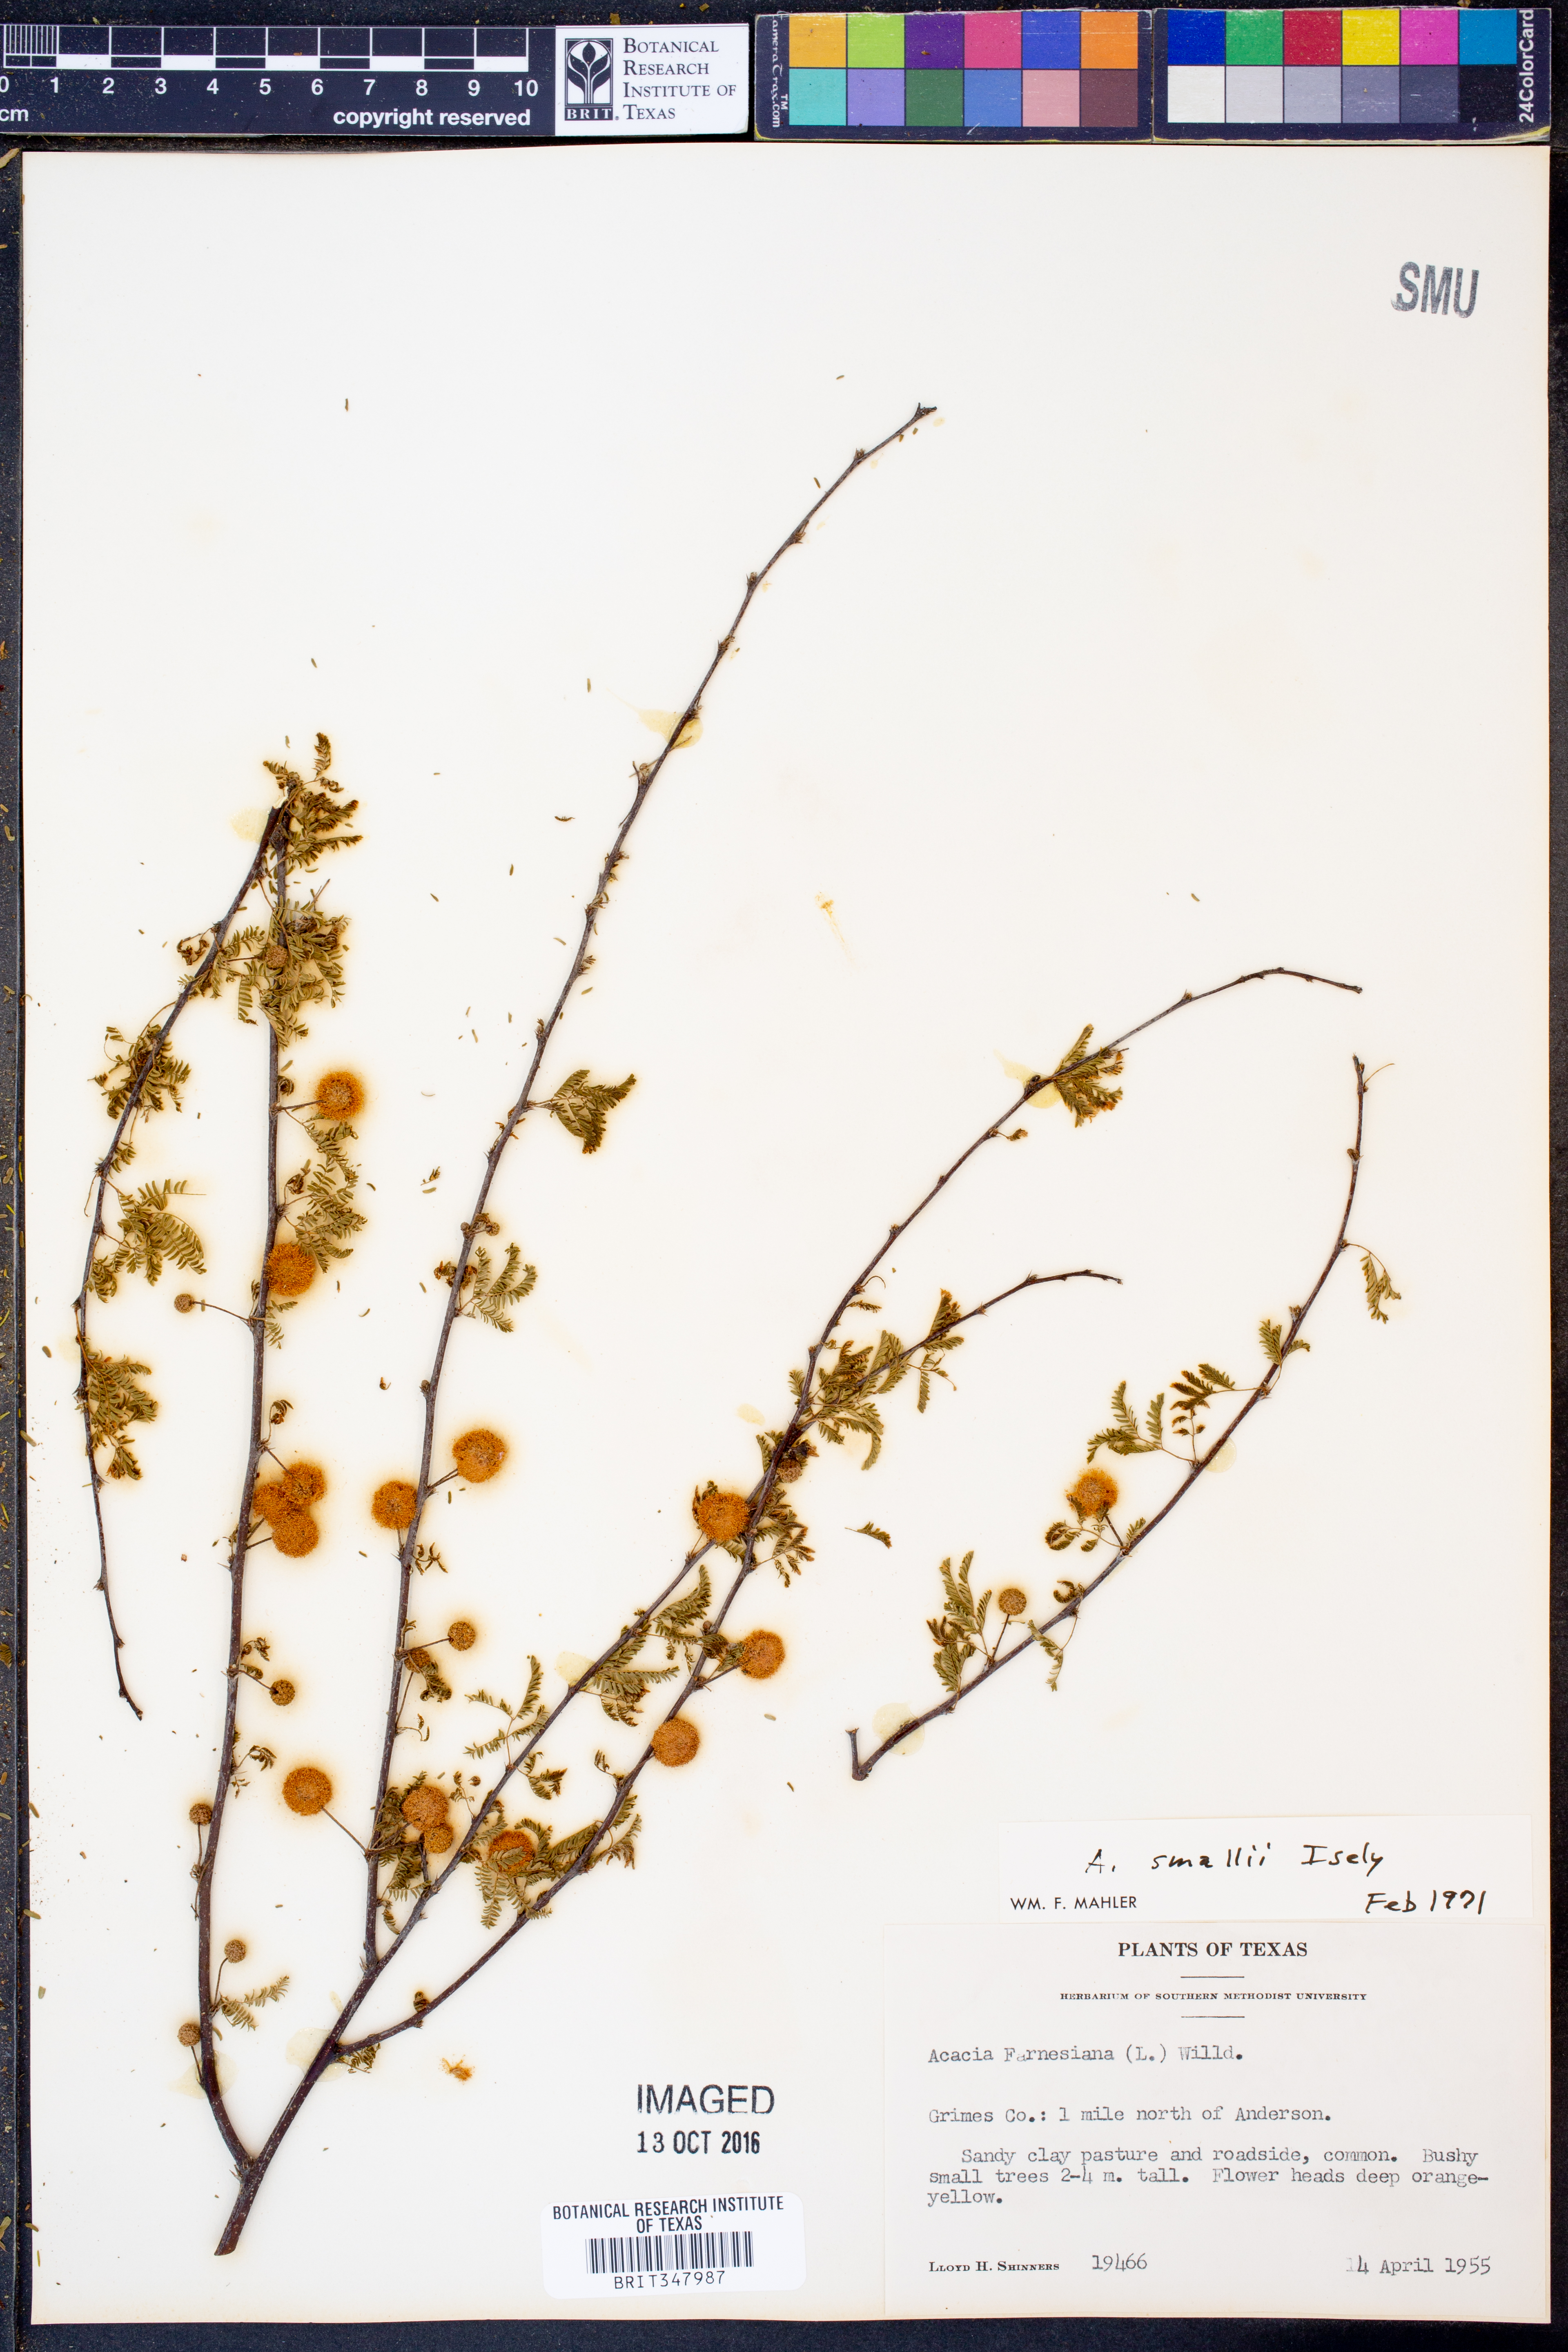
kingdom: Plantae
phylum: Tracheophyta
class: Magnoliopsida
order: Fabales
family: Fabaceae
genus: Vachellia
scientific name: Vachellia farnesiana
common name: Sweet acacia
